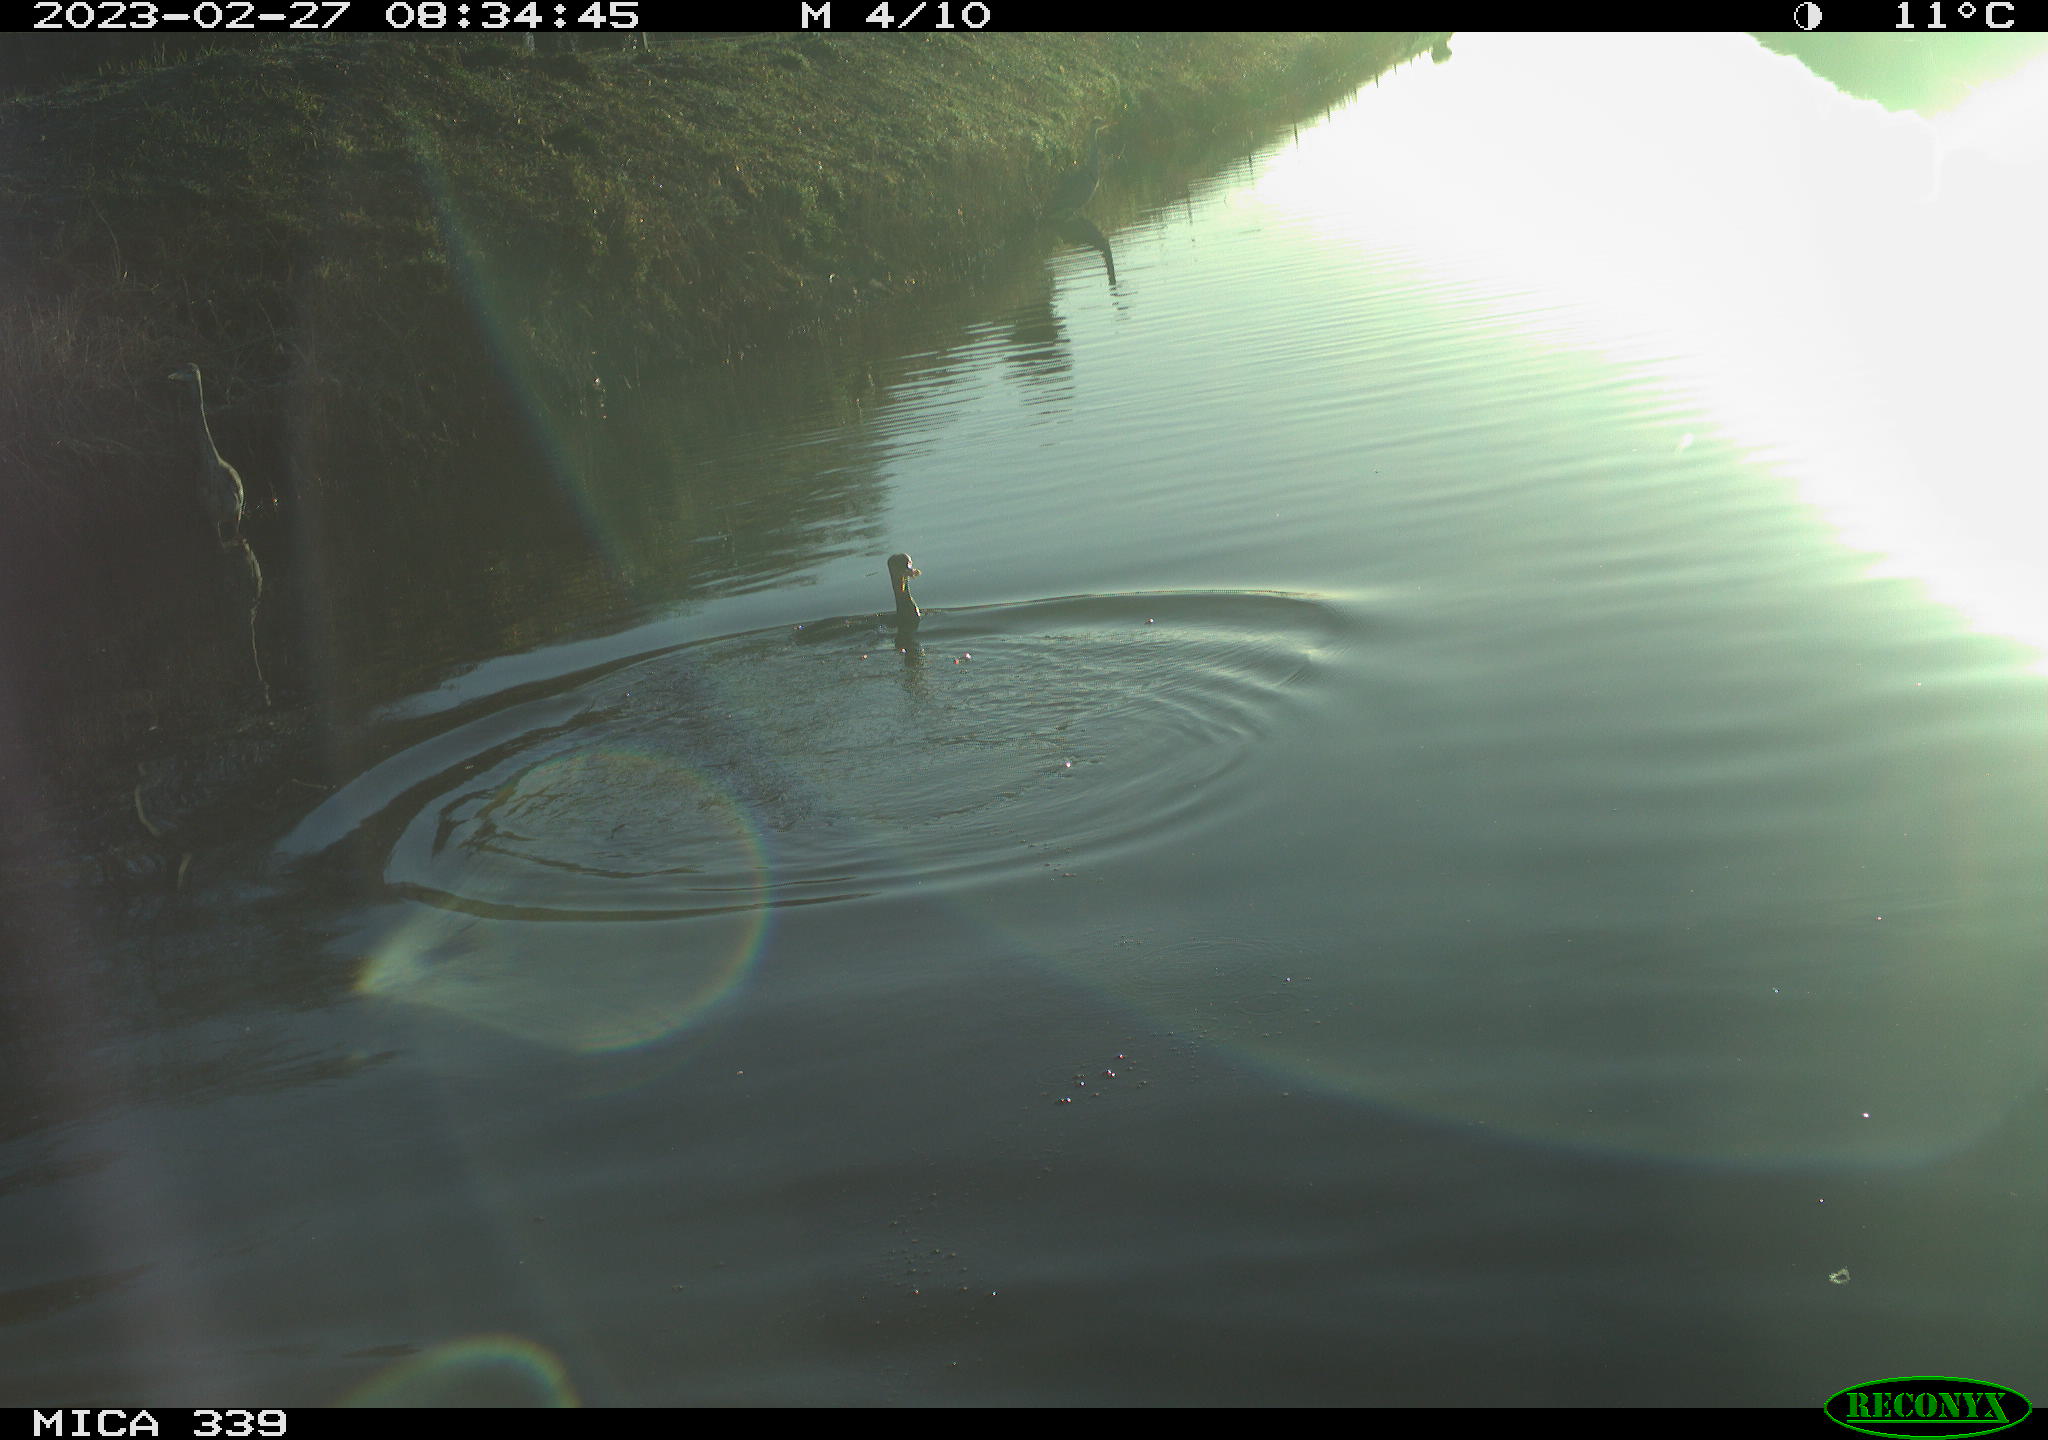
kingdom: Animalia
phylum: Chordata
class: Aves
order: Suliformes
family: Phalacrocoracidae
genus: Phalacrocorax
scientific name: Phalacrocorax carbo
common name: Great cormorant
